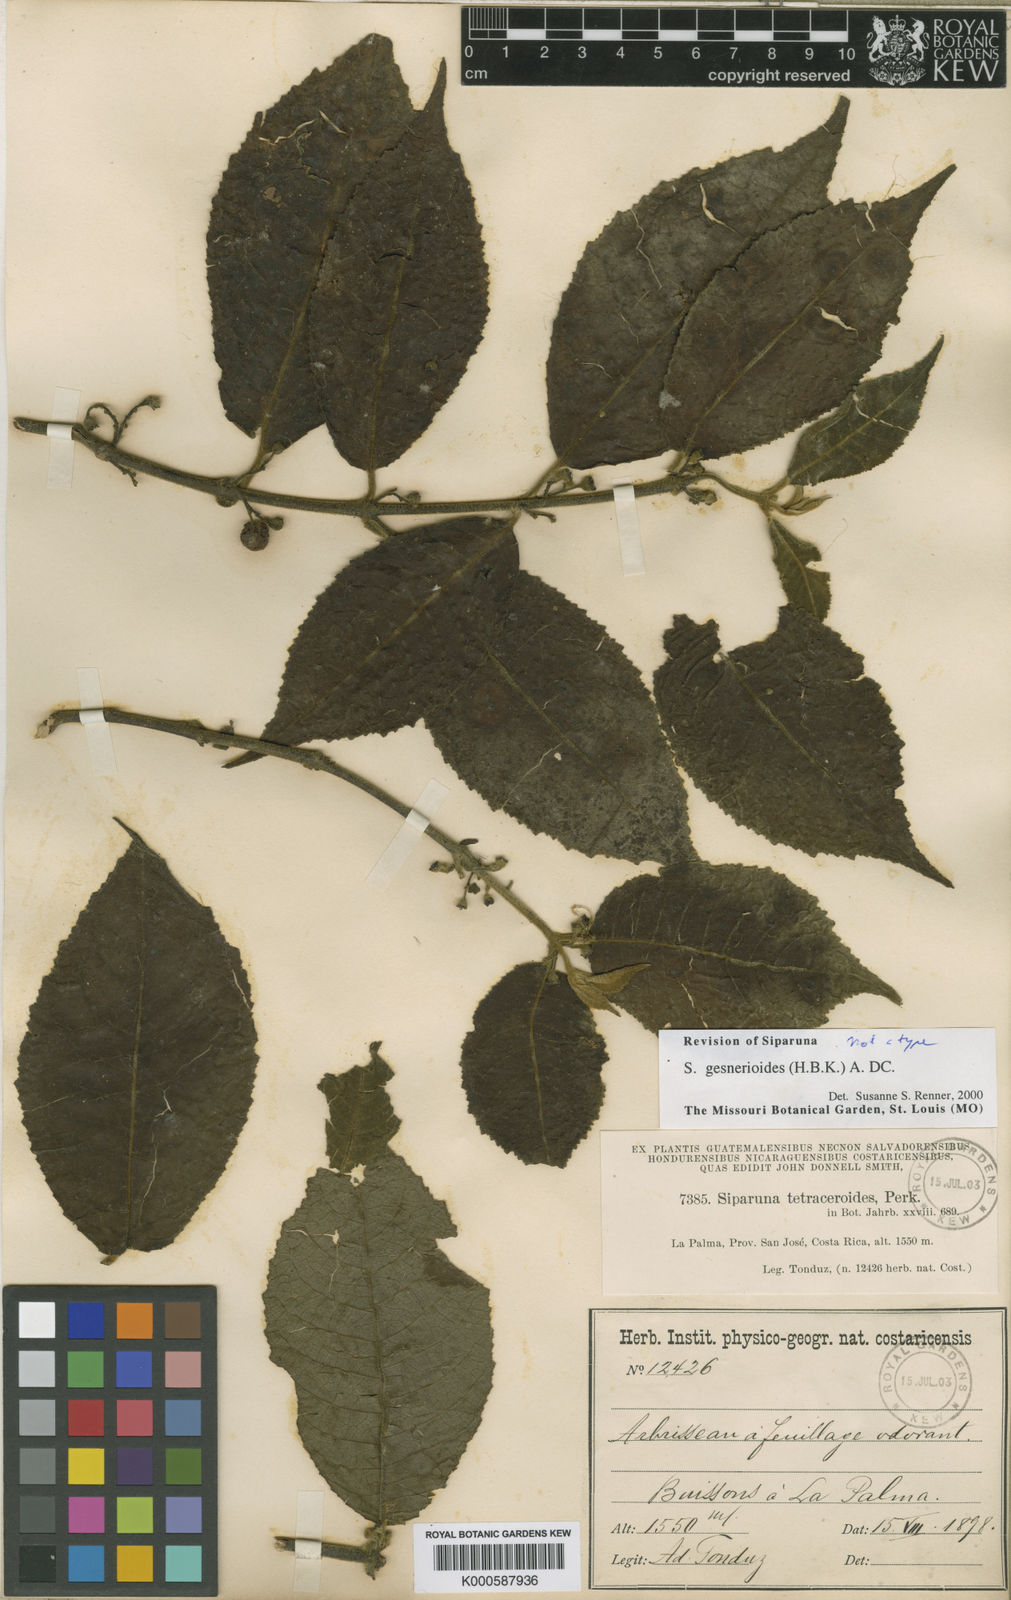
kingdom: Plantae
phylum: Tracheophyta
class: Magnoliopsida
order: Laurales
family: Siparunaceae
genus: Siparuna
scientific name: Siparuna gesnerioides
